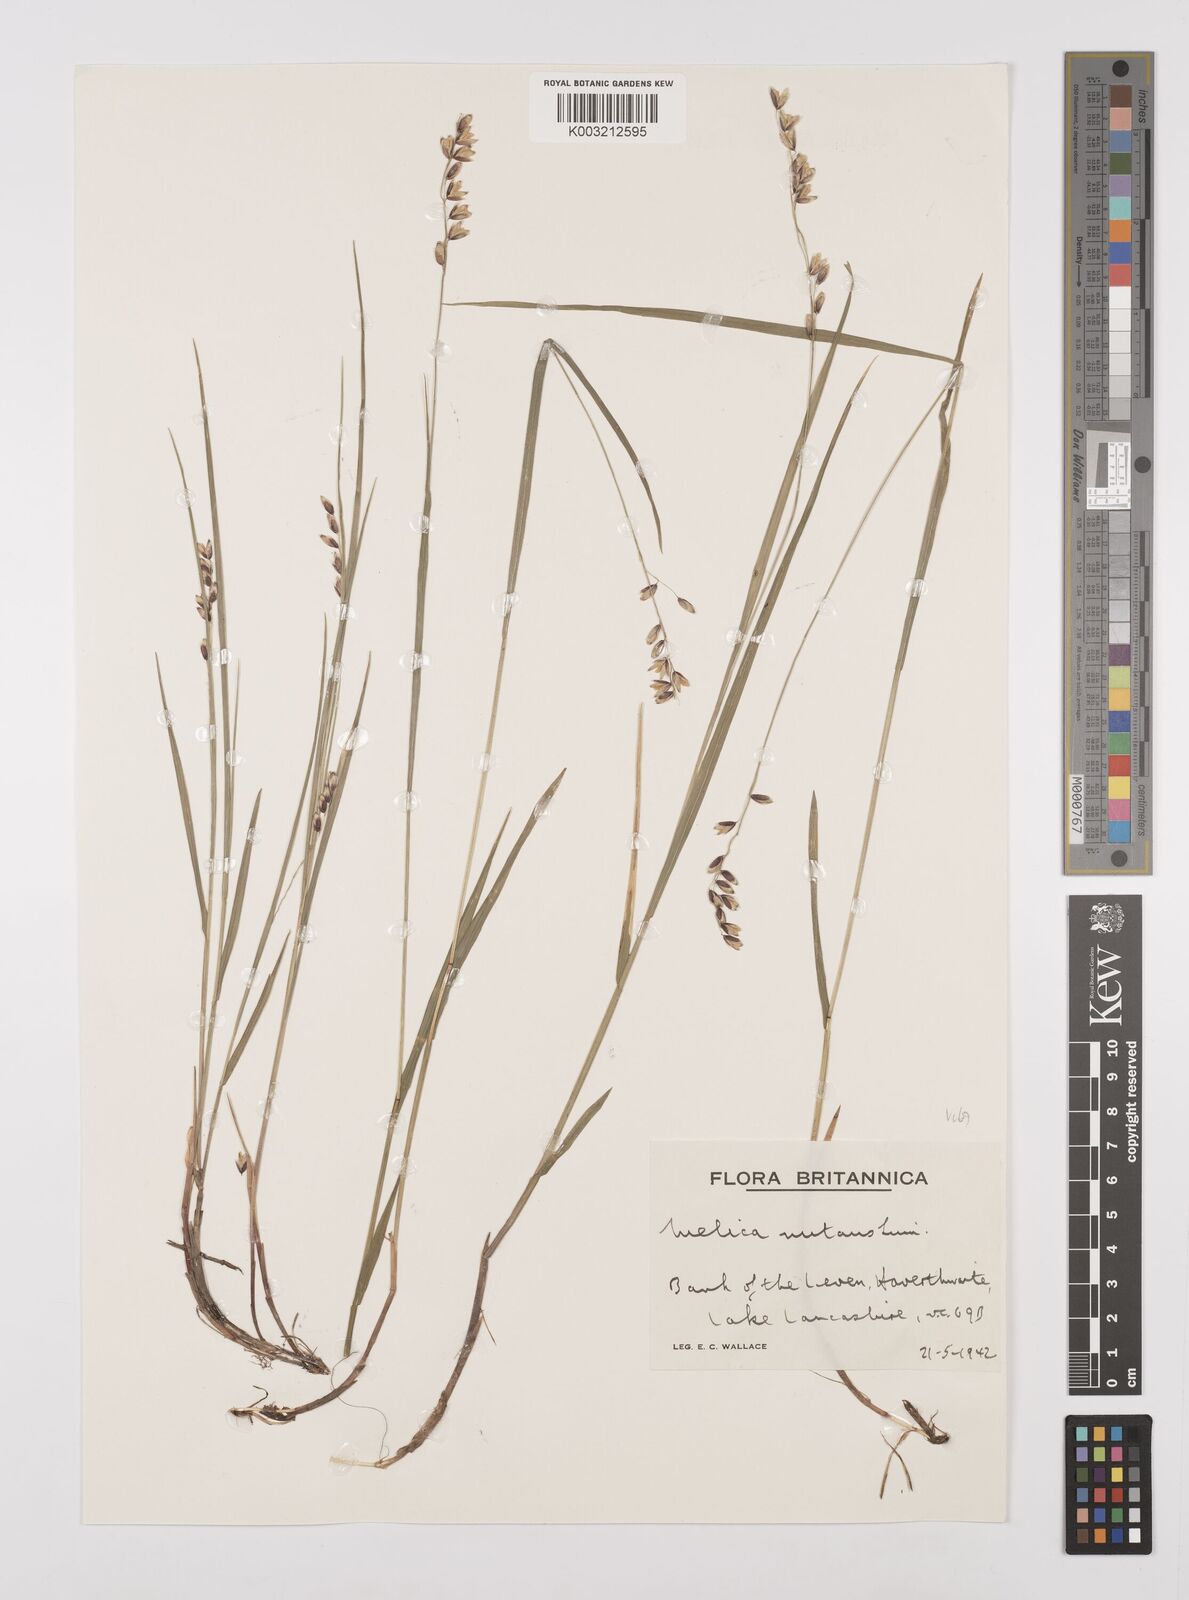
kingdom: Plantae
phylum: Tracheophyta
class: Liliopsida
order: Poales
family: Poaceae
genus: Melica
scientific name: Melica
